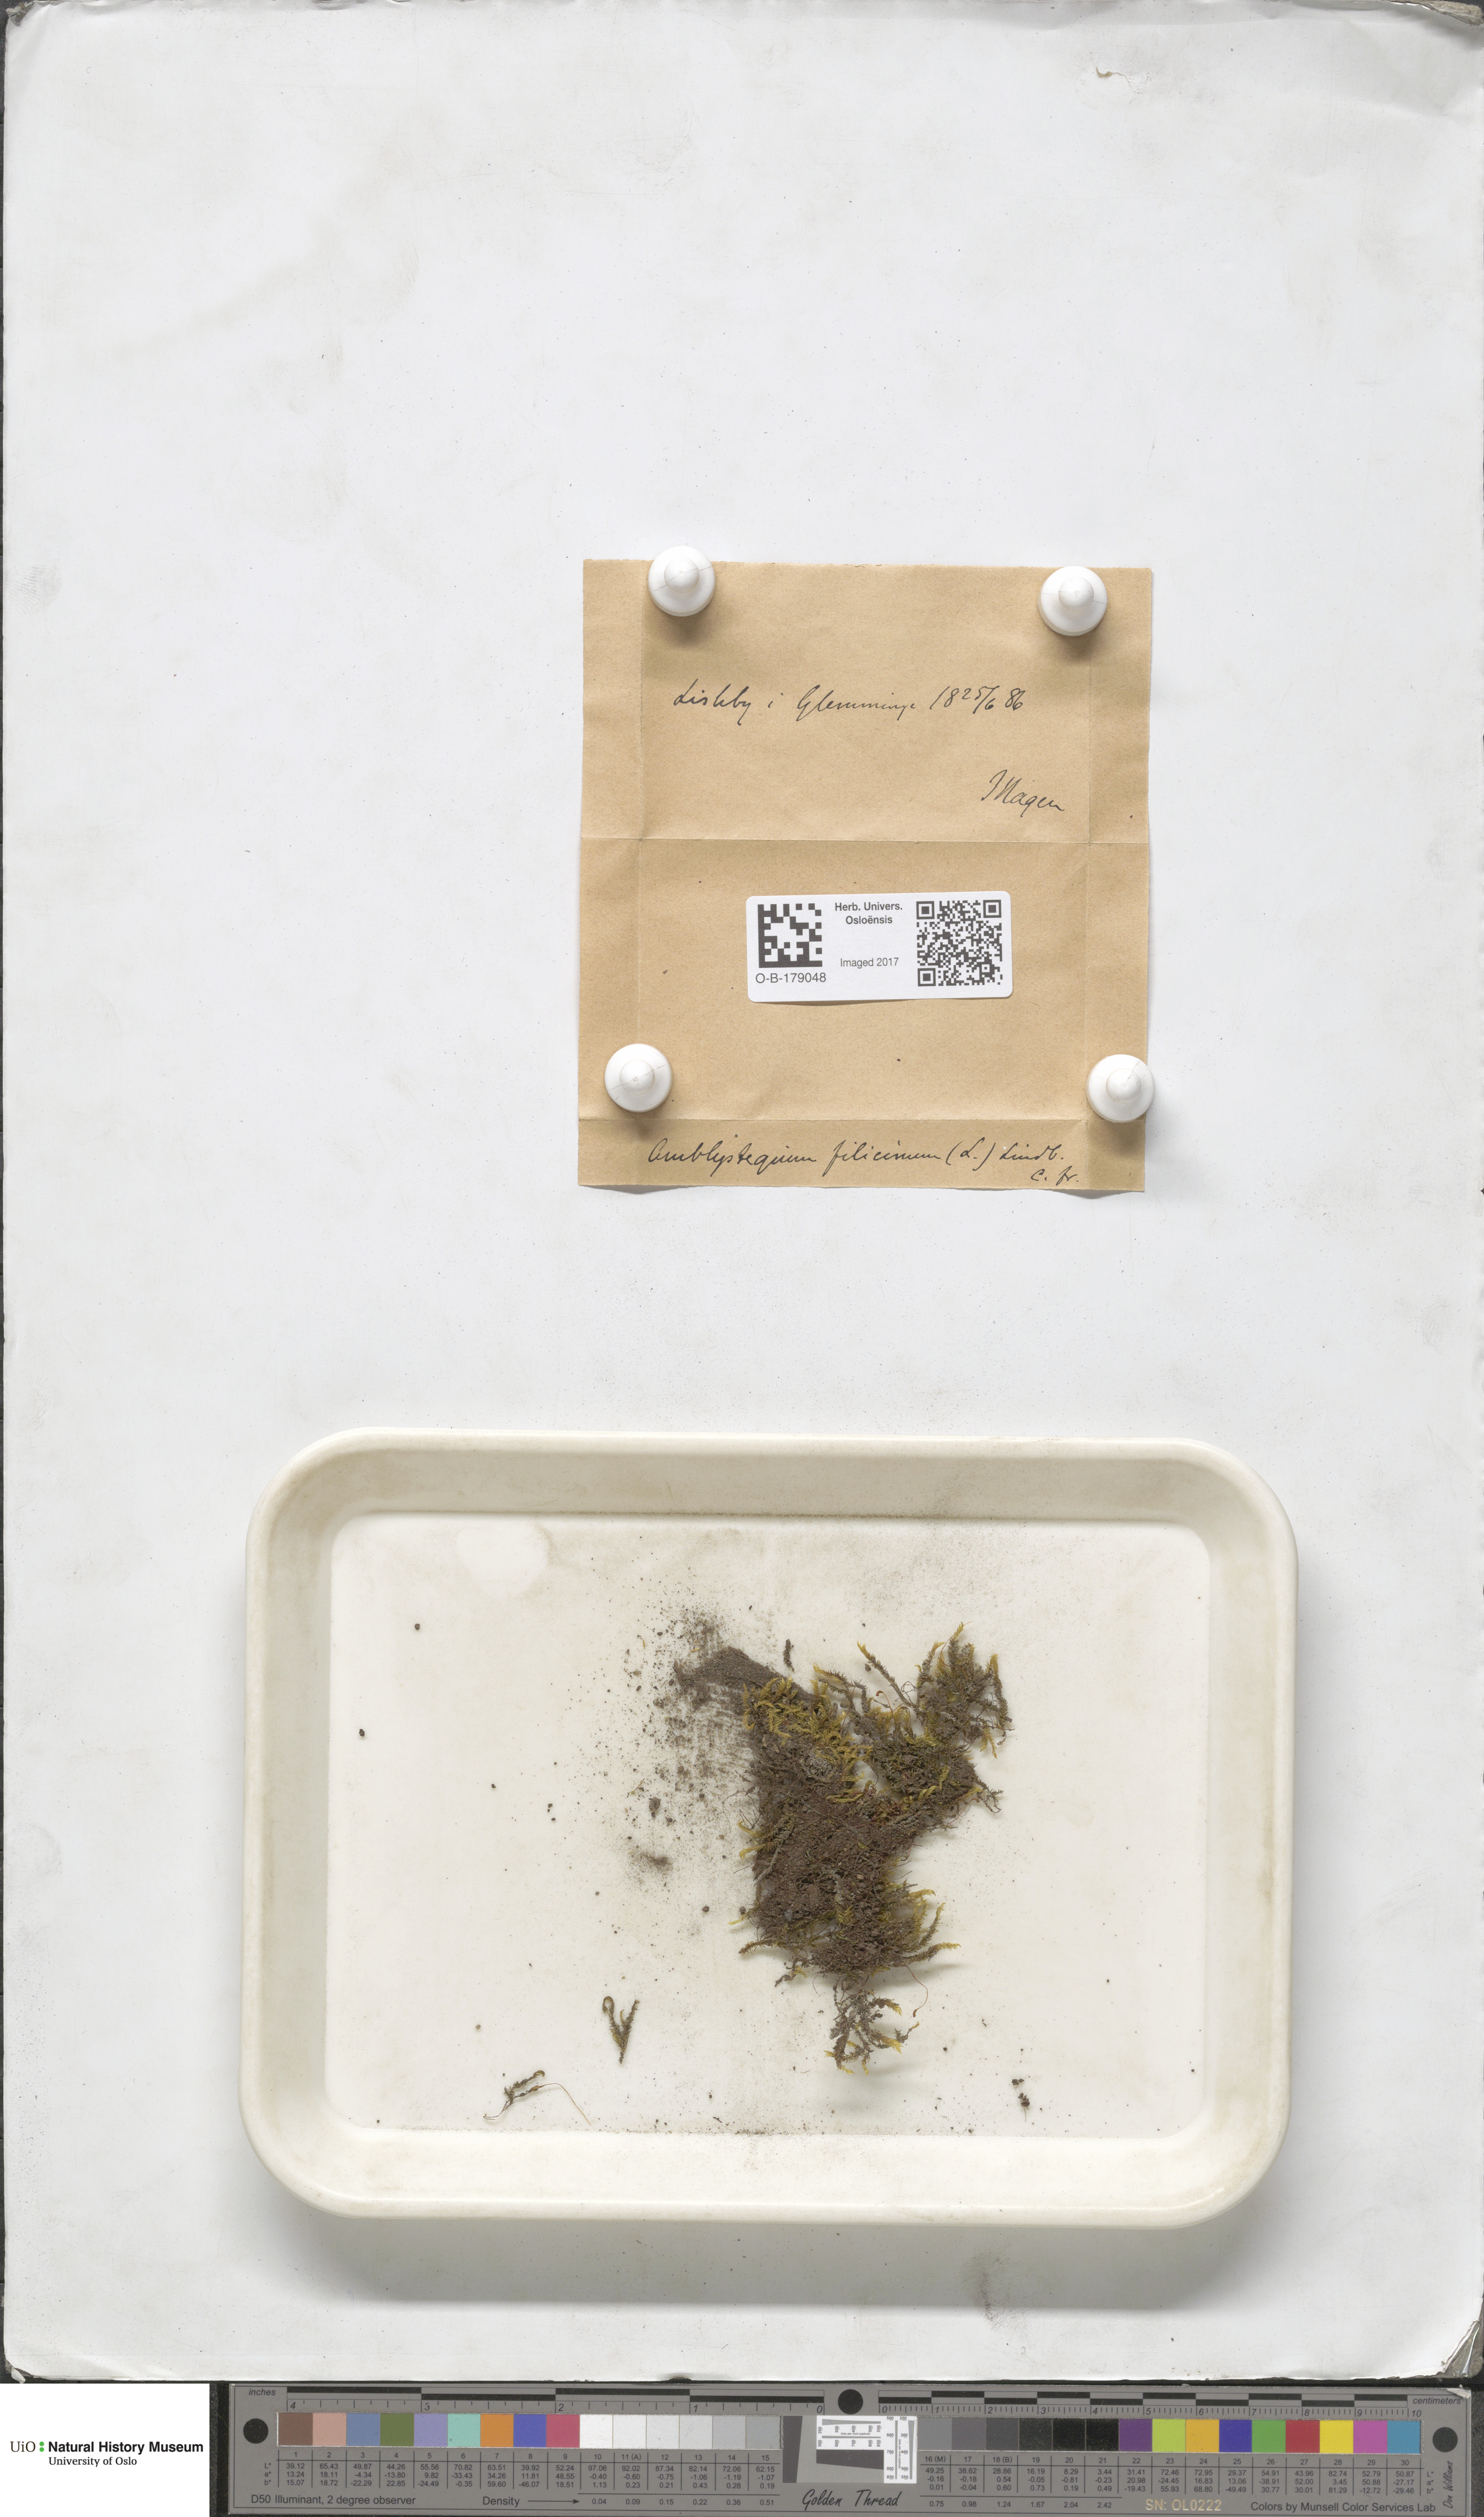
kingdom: Plantae
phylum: Bryophyta
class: Bryopsida
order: Hypnales
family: Amblystegiaceae
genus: Cratoneuron
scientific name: Cratoneuron filicinum
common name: Fern-leaved hook moss
